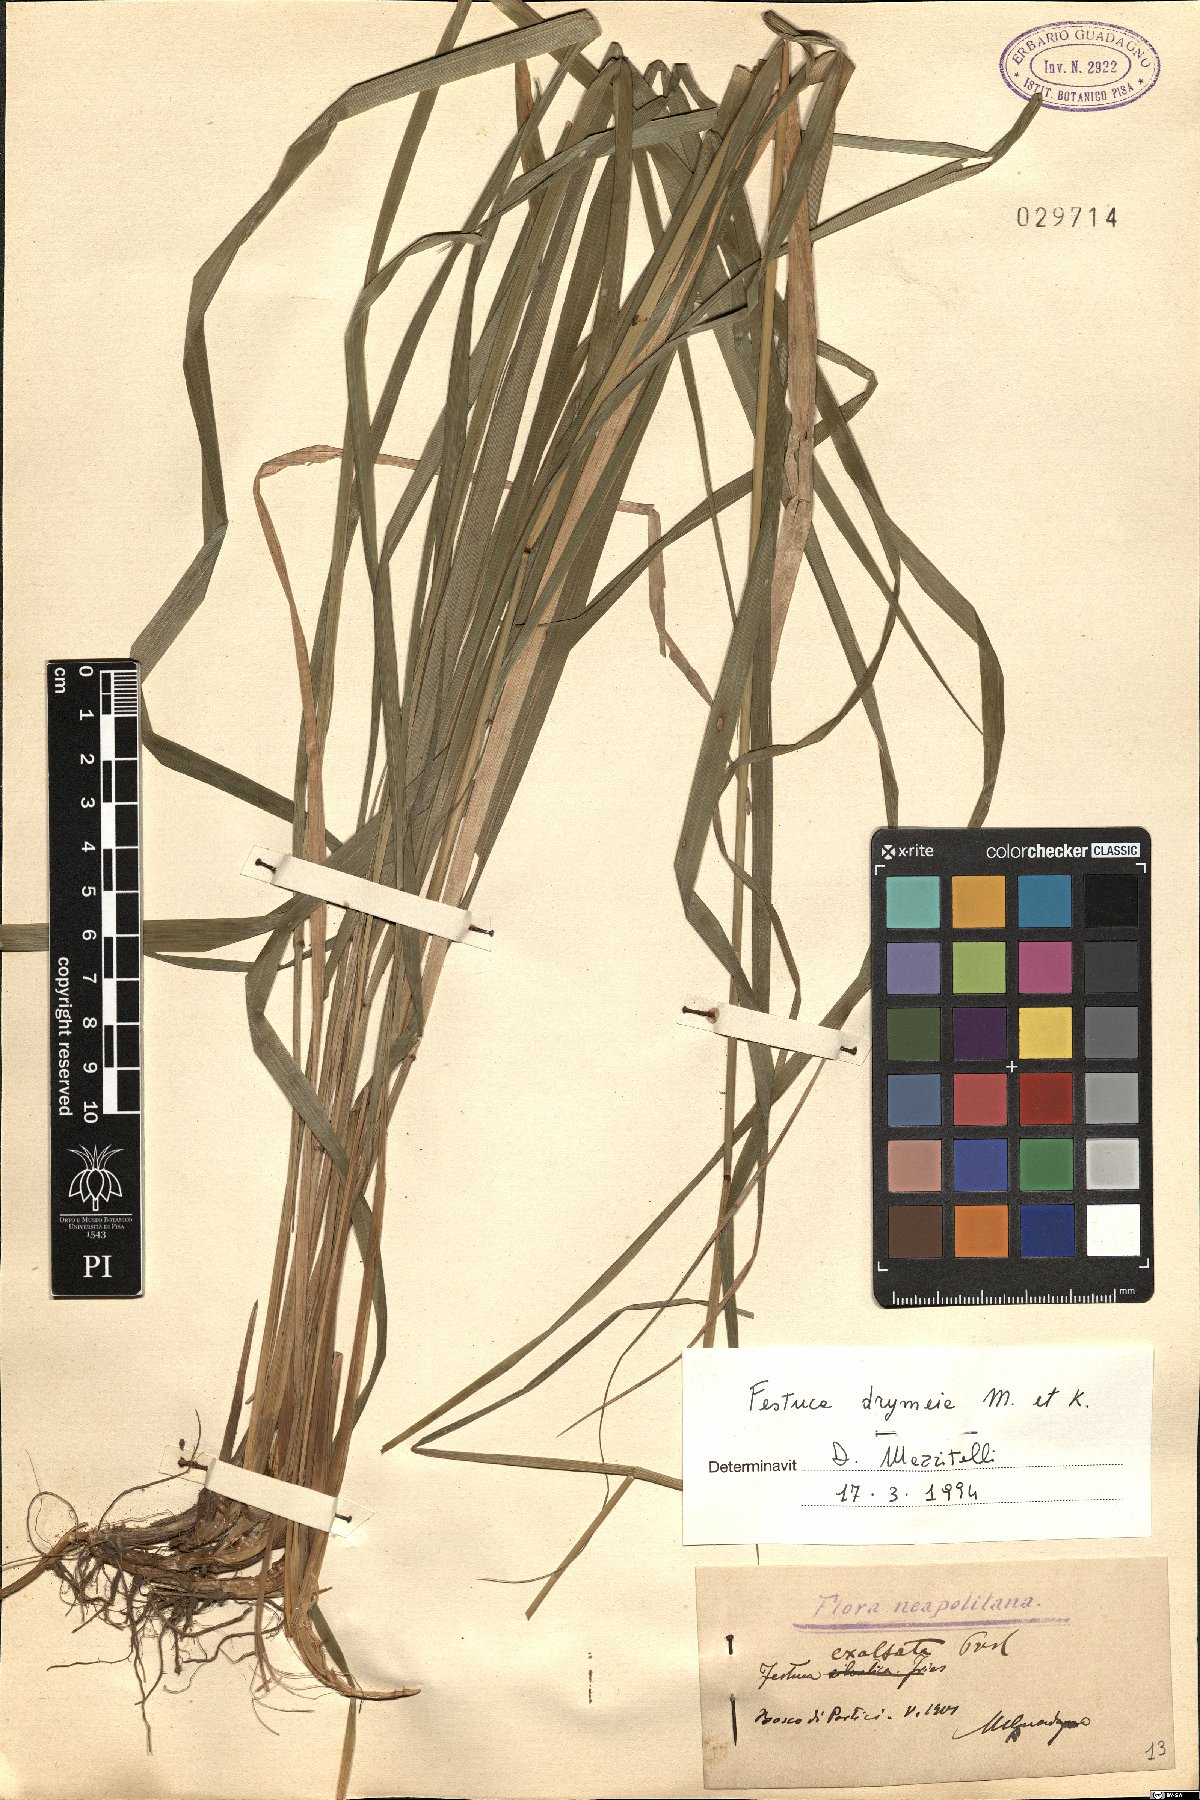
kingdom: Plantae
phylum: Tracheophyta
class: Liliopsida
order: Poales
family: Poaceae
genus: Festuca
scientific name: Festuca drymeja
